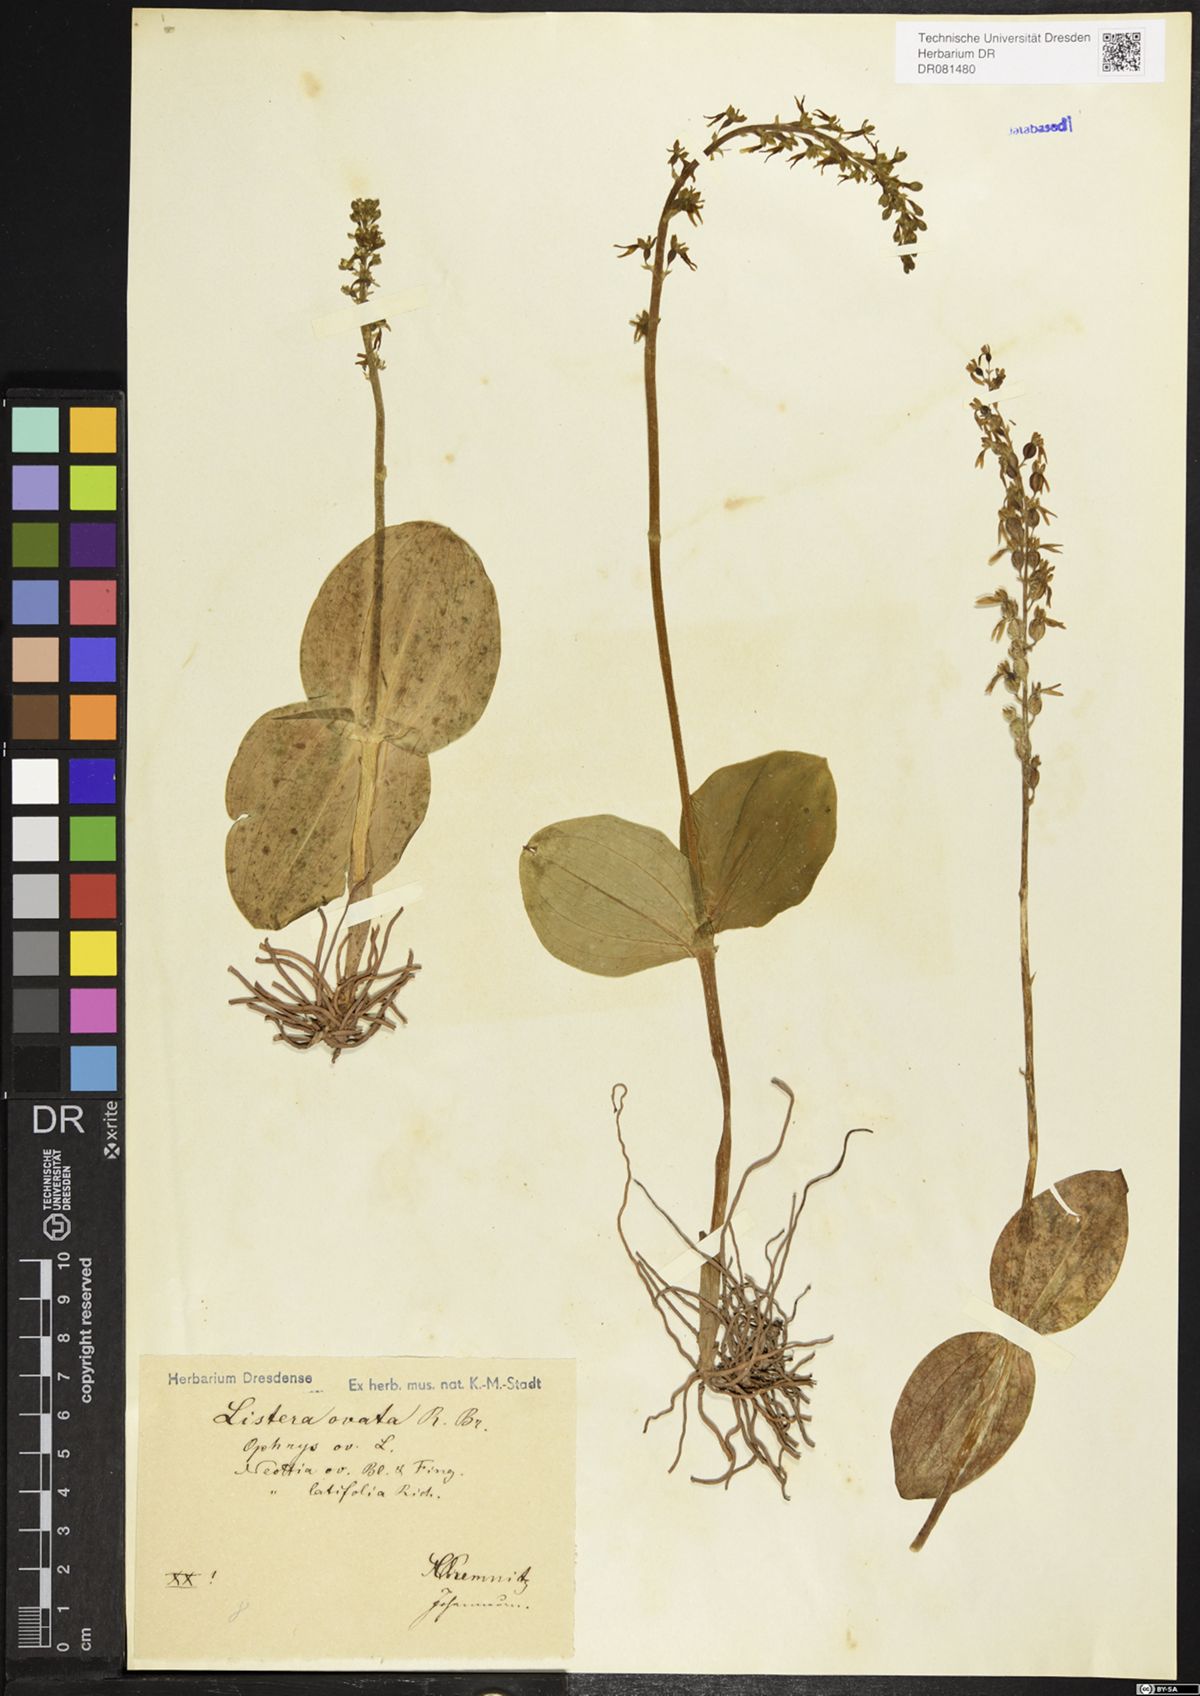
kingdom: Plantae
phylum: Tracheophyta
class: Liliopsida
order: Asparagales
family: Orchidaceae
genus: Neottia
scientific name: Neottia ovata
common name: Common twayblade
